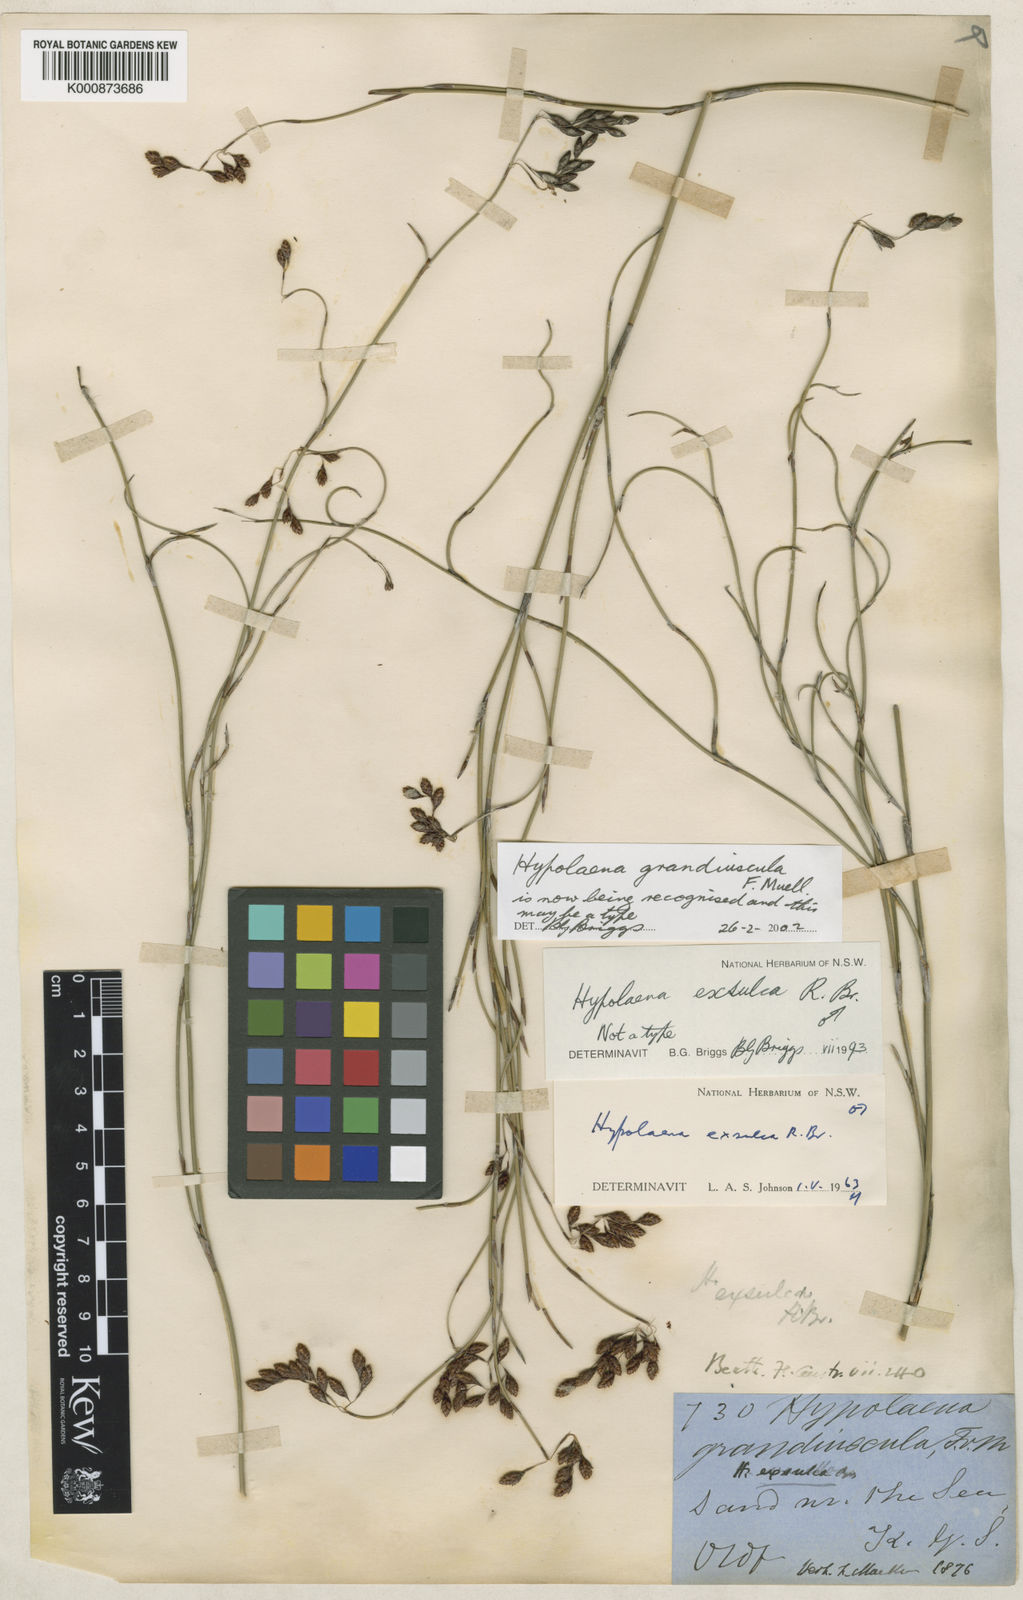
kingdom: Plantae
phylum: Tracheophyta
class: Liliopsida
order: Poales
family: Restionaceae
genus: Hypolaena
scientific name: Hypolaena exsulca
